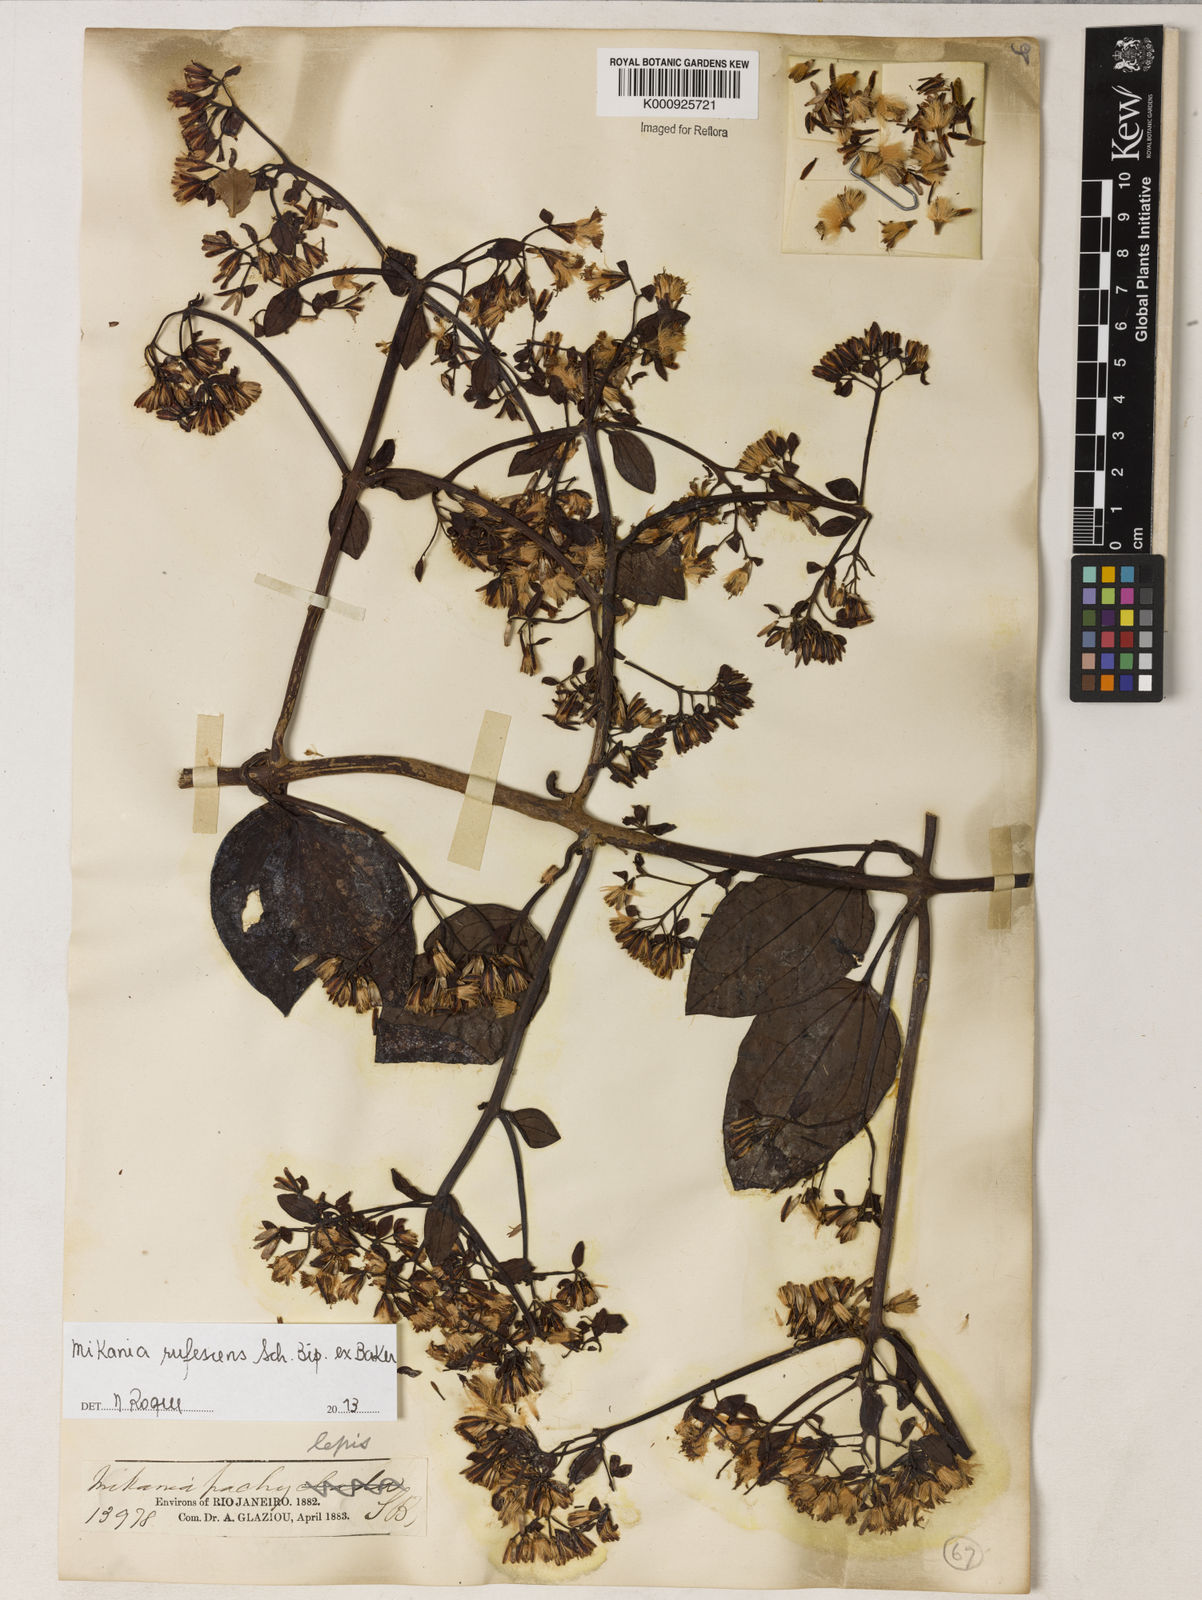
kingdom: Plantae
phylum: Tracheophyta
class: Magnoliopsida
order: Asterales
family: Asteraceae
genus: Mikania
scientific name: Mikania
